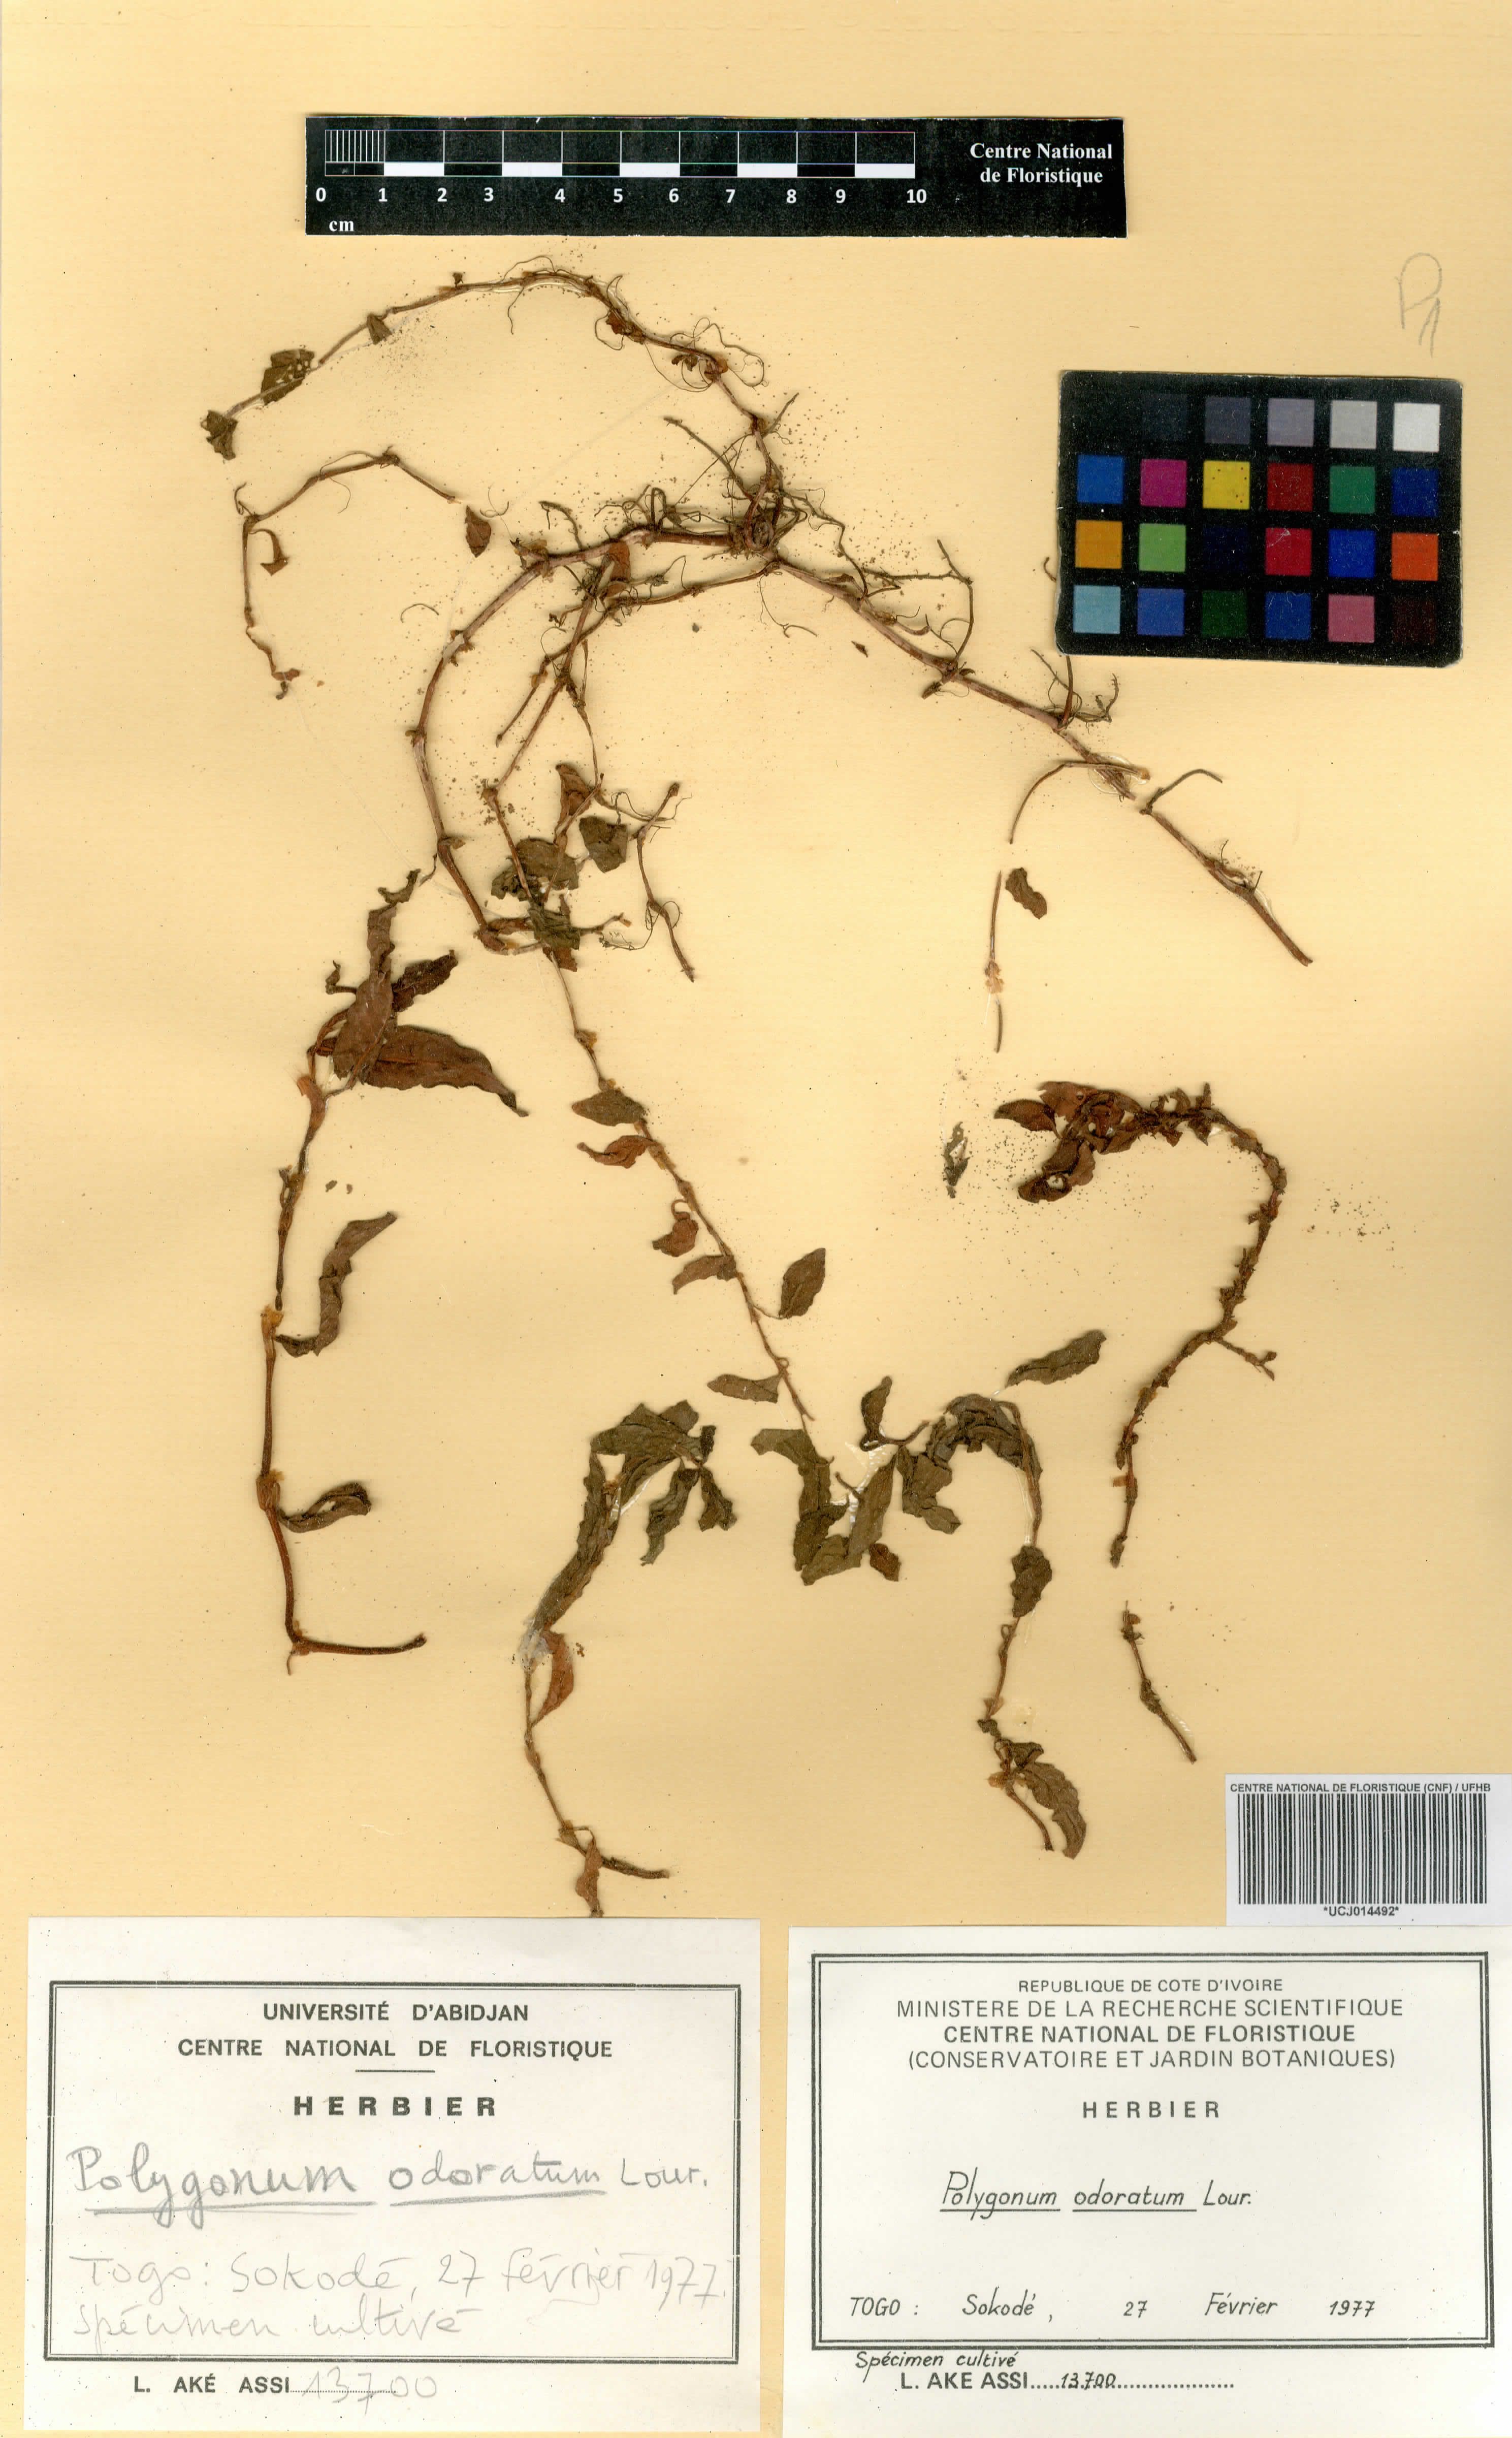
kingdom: Plantae
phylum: Tracheophyta
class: Magnoliopsida
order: Caryophyllales
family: Polygonaceae
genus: Persicaria
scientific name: Persicaria odorata
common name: Vietnamese-coriander
